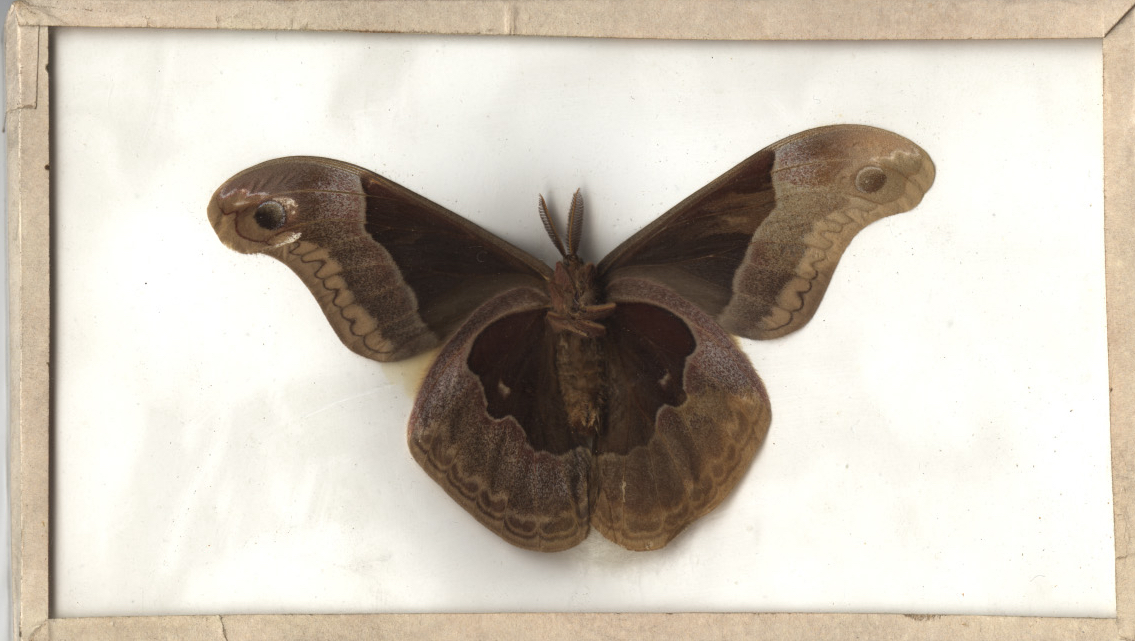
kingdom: Animalia
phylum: Arthropoda
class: Insecta
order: Lepidoptera
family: Saturniidae
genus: Callosamia
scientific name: Callosamia promethea
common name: Promethea Moth
